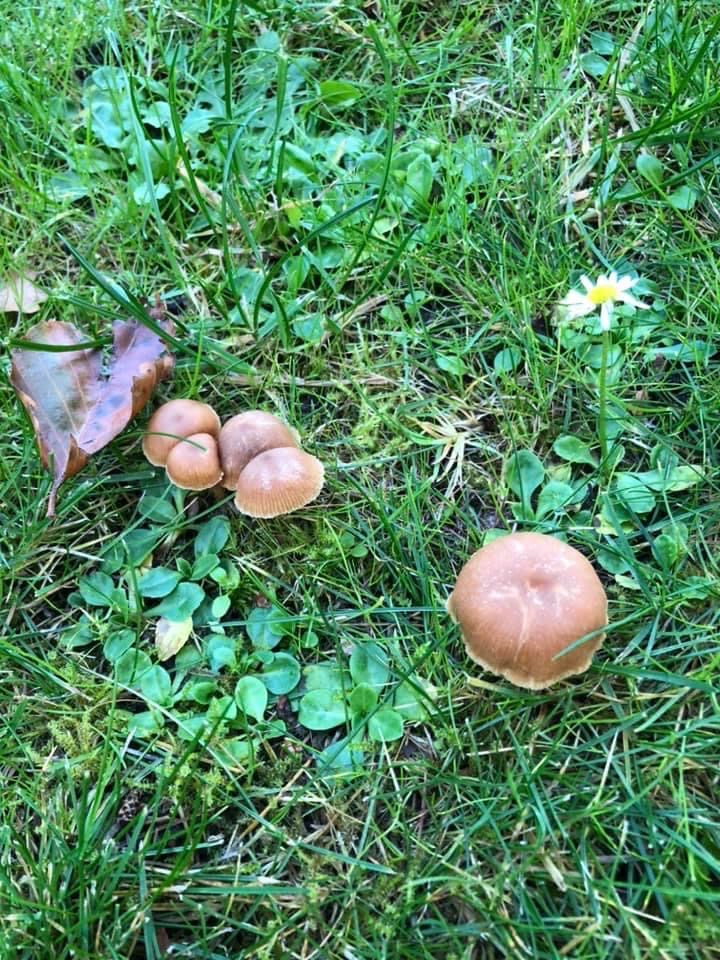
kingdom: Fungi
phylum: Basidiomycota
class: Agaricomycetes
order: Agaricales
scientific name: Agaricales
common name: champignonordenen
